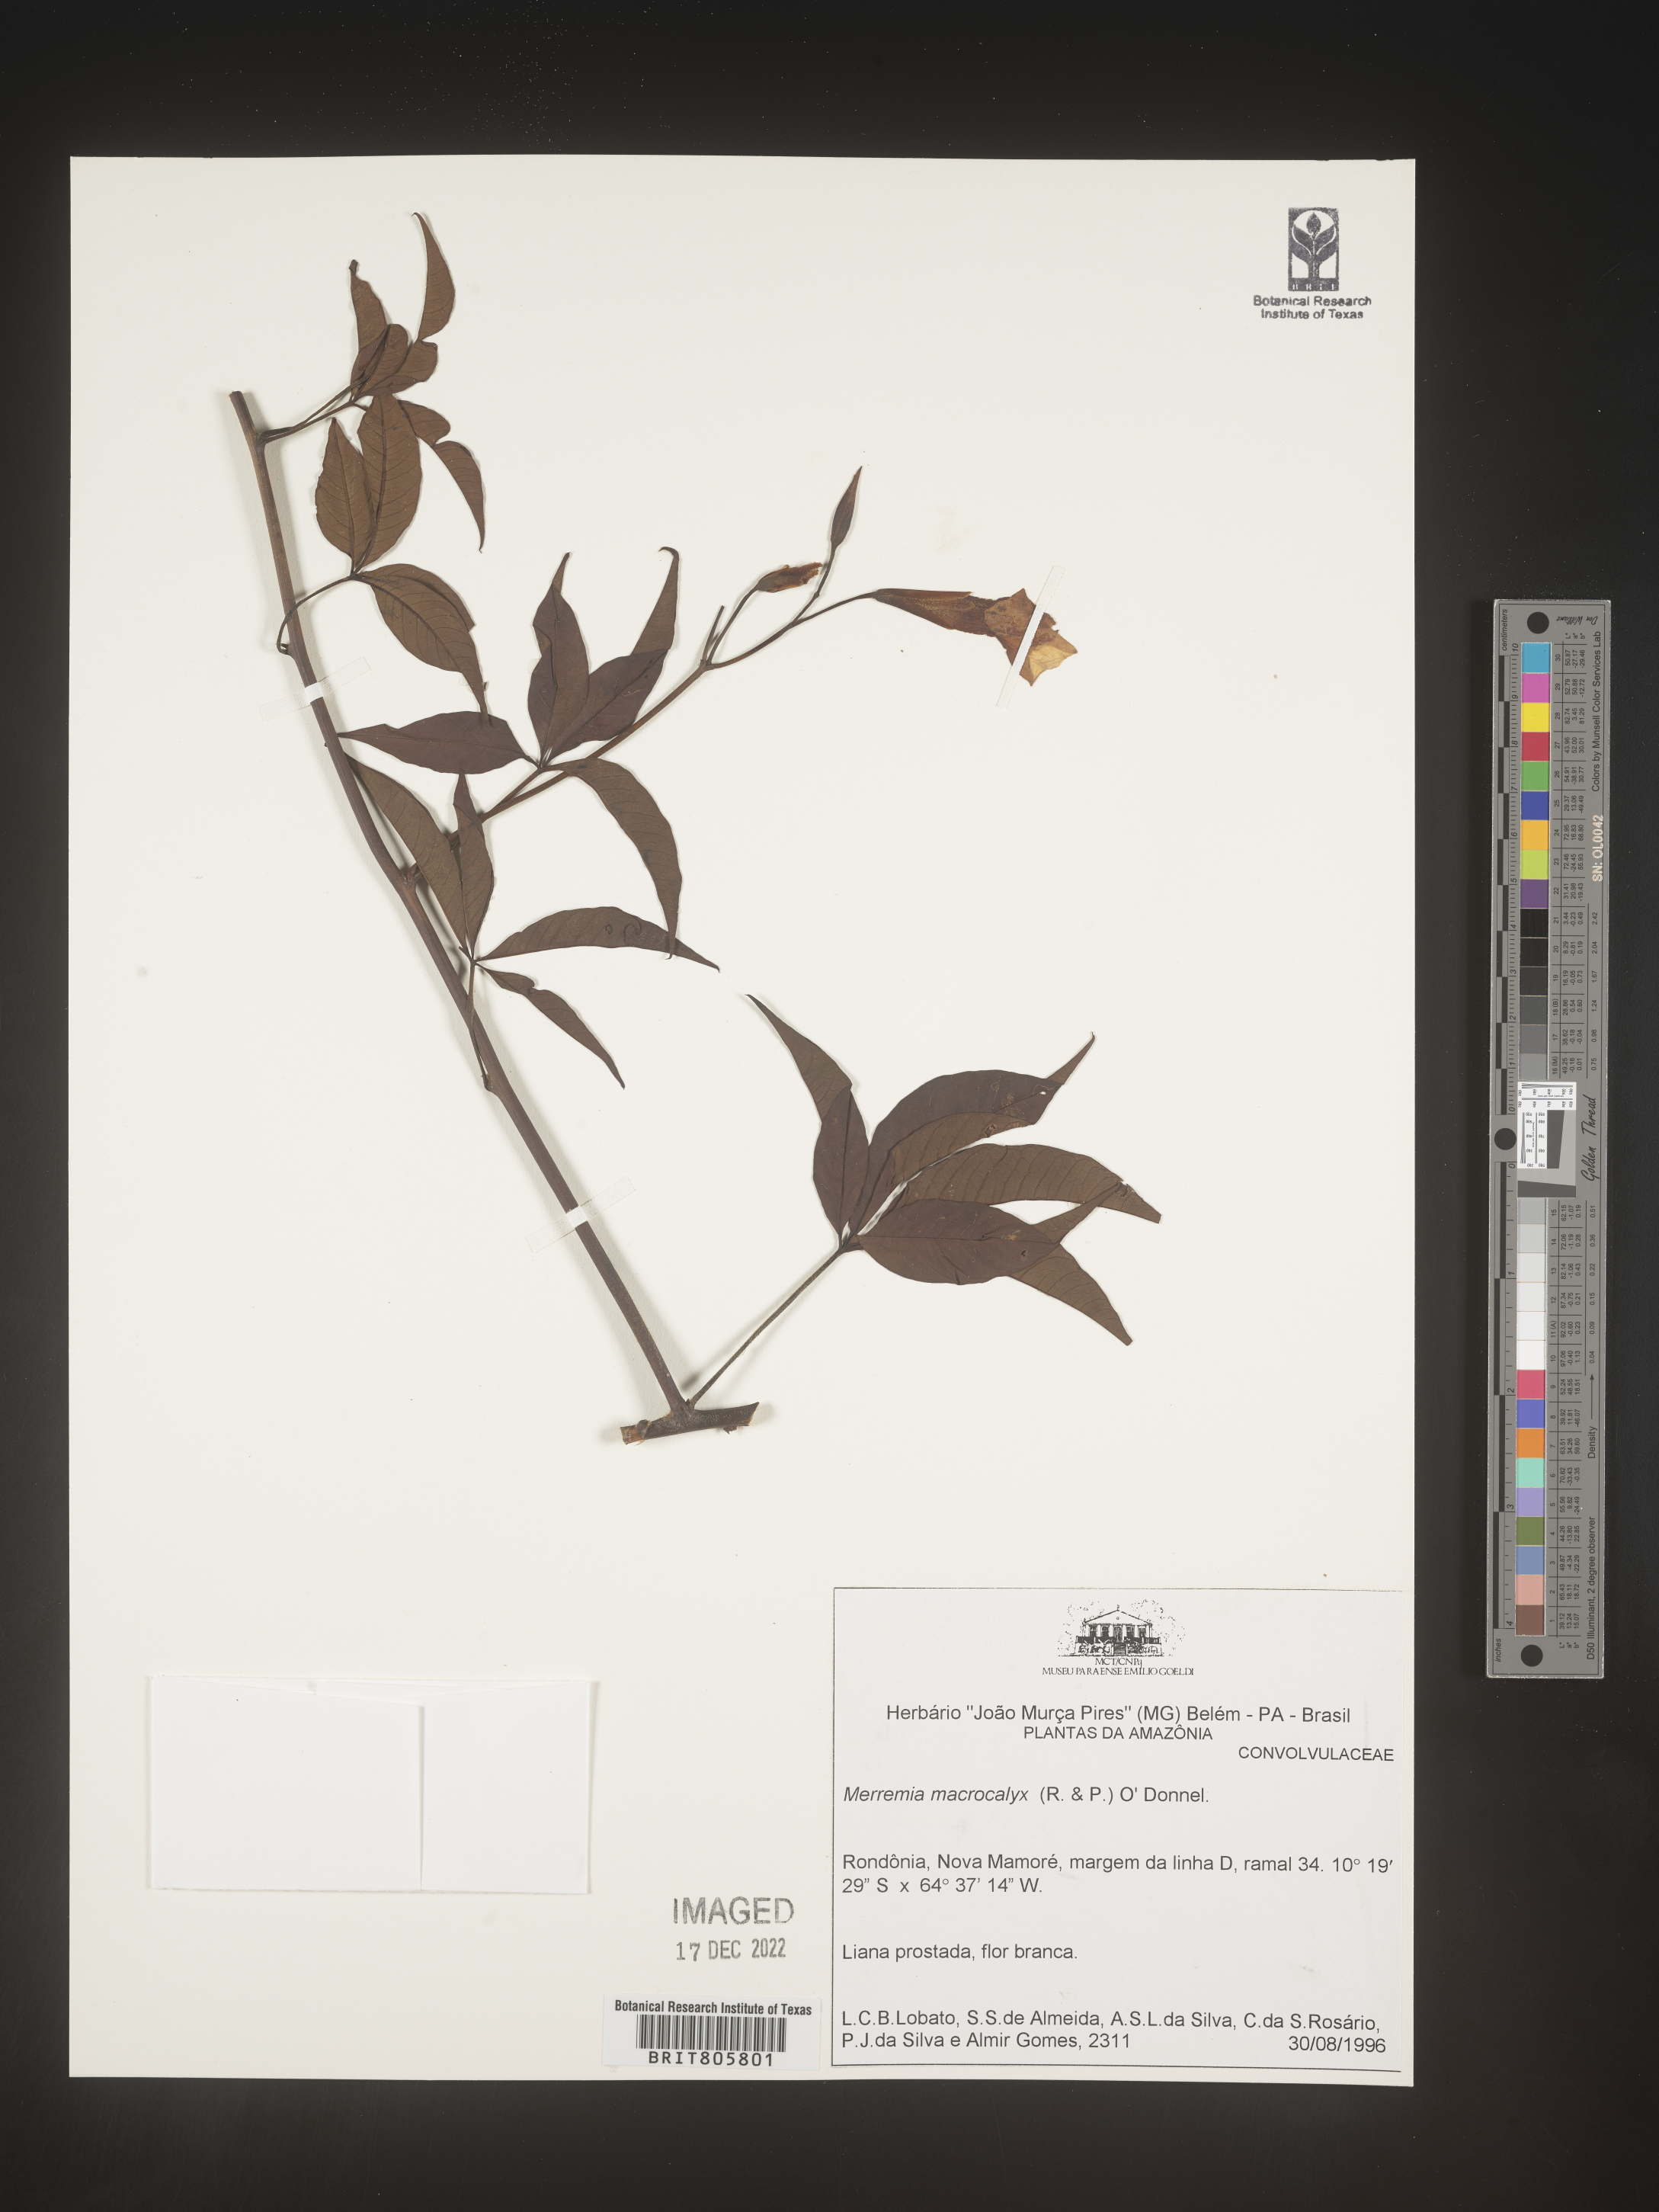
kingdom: Plantae
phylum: Tracheophyta
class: Magnoliopsida
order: Solanales
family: Convolvulaceae
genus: Merremia
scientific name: Merremia
